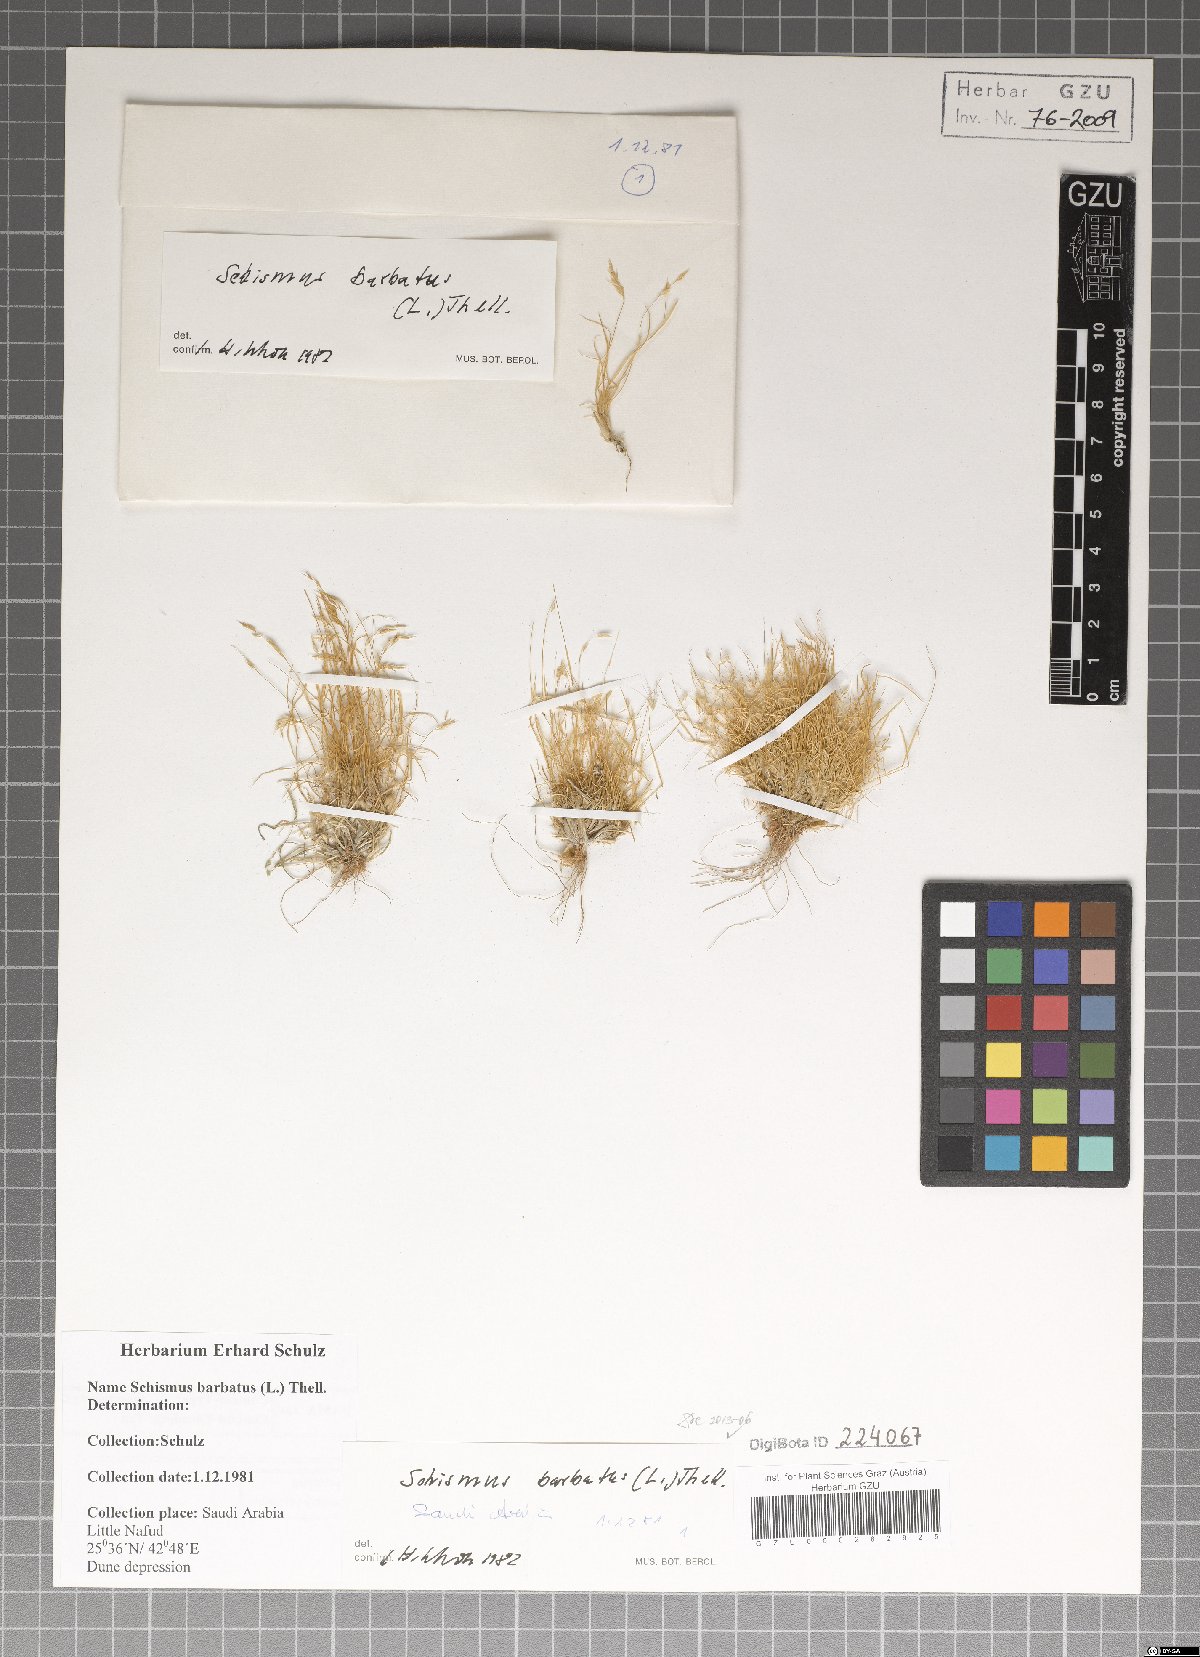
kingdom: Plantae
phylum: Tracheophyta
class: Liliopsida
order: Poales
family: Poaceae
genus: Schismus
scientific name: Schismus barbatus
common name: Kelch-grass
